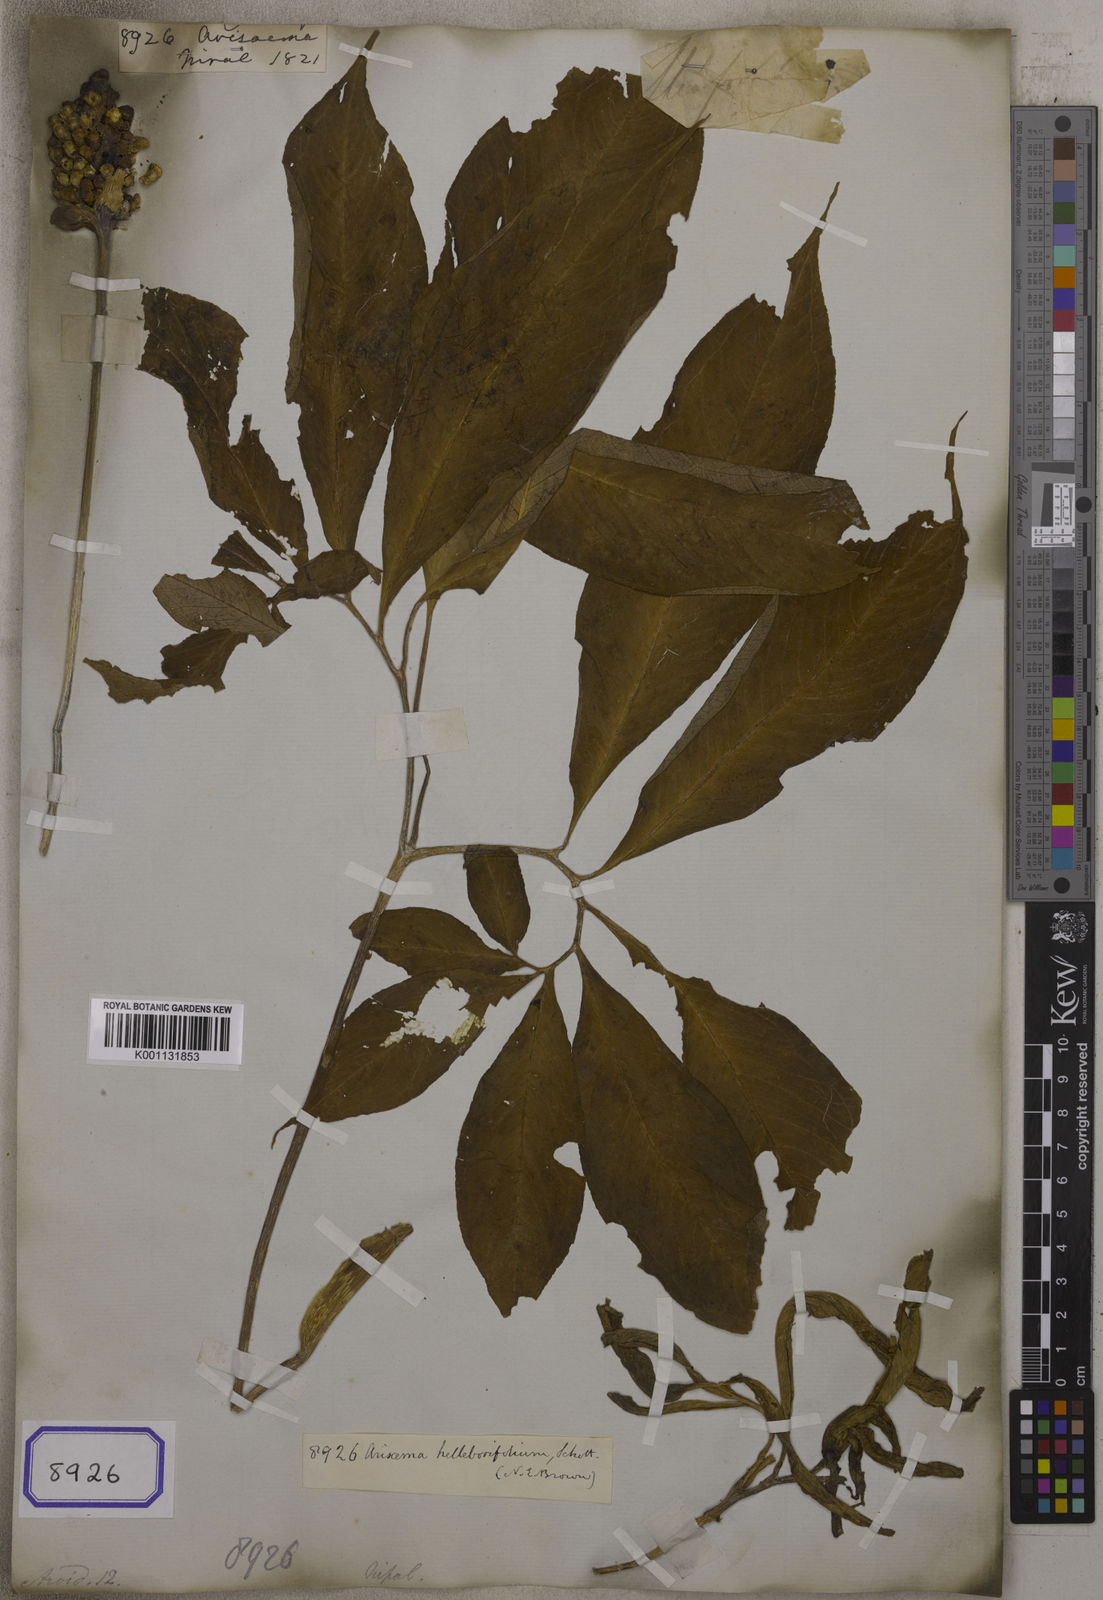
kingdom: Plantae
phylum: Tracheophyta
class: Liliopsida
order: Alismatales
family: Araceae
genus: Arisaema
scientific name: Arisaema
